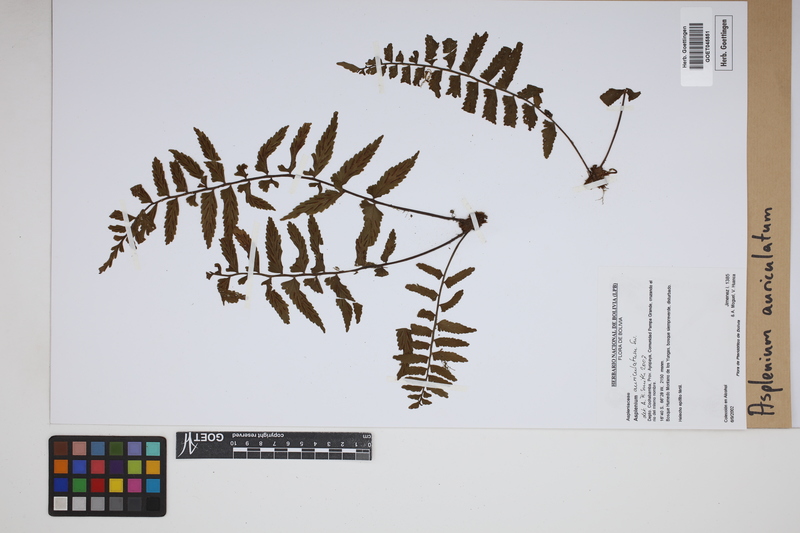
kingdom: Plantae
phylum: Tracheophyta
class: Polypodiopsida
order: Polypodiales
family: Aspleniaceae
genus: Asplenium
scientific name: Asplenium auriculatum
